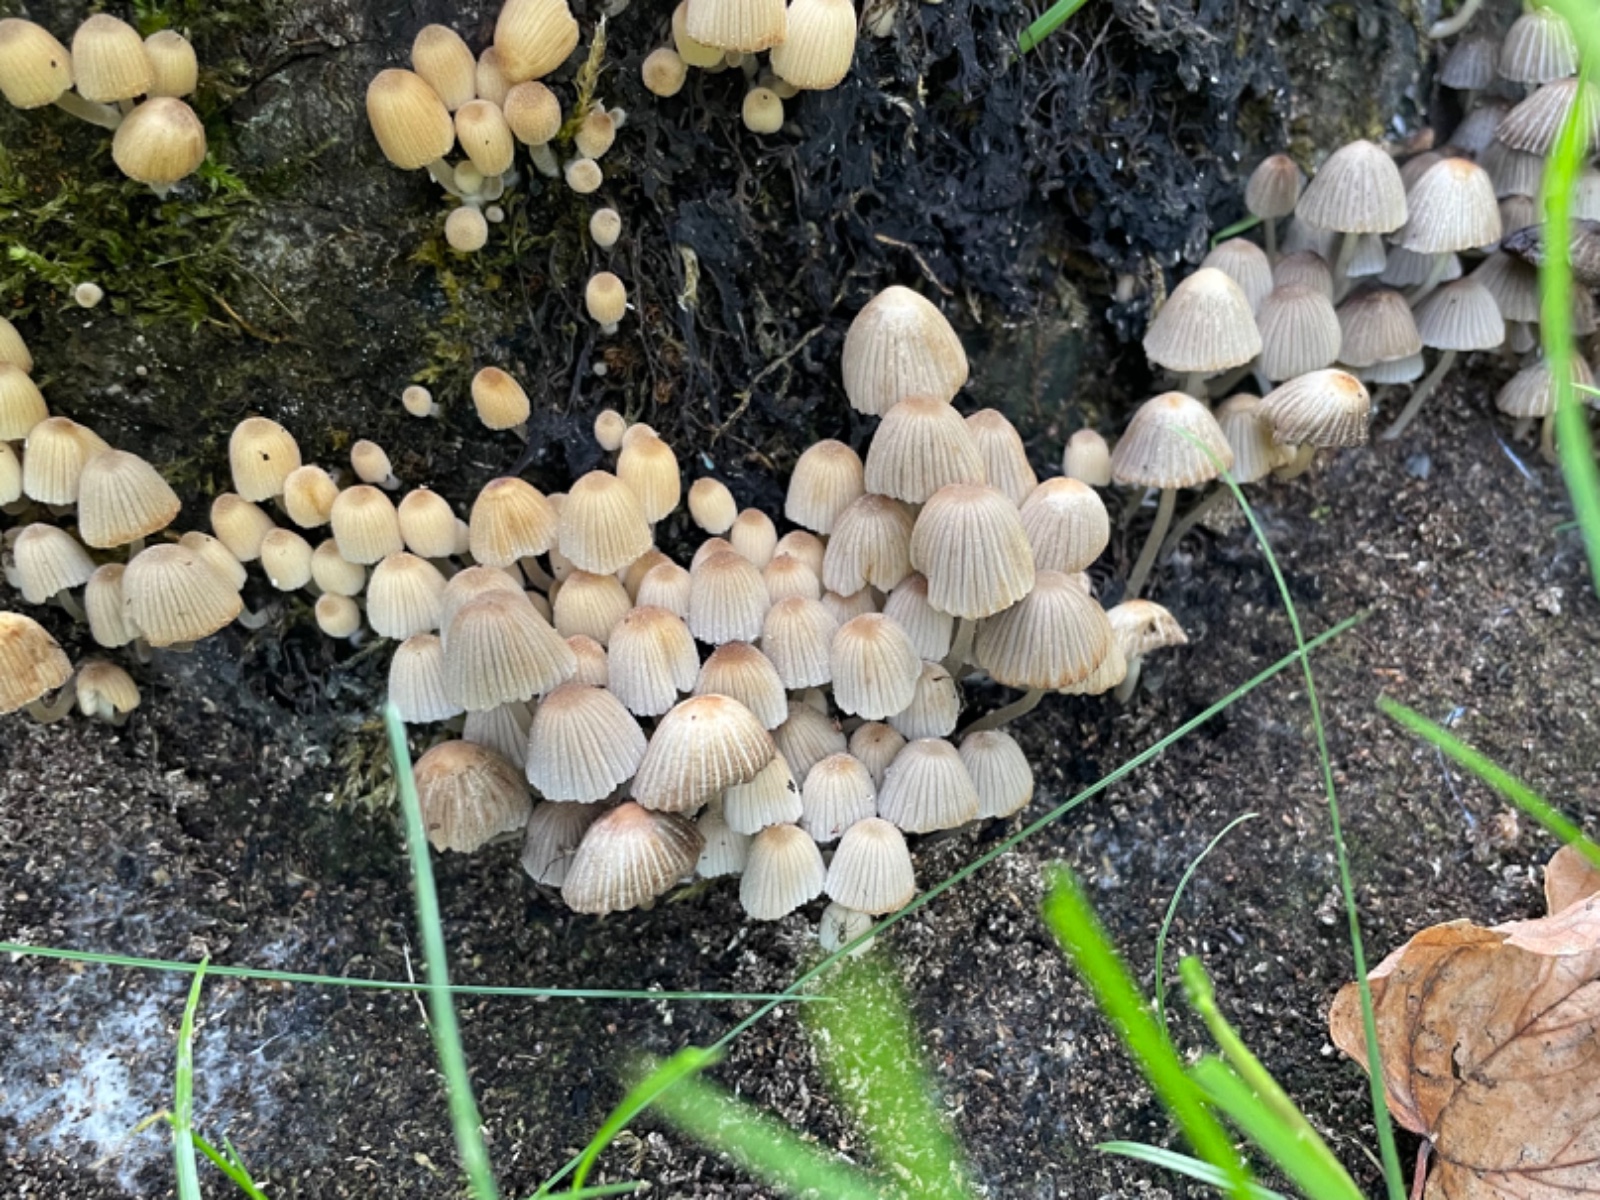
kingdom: Fungi
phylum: Basidiomycota
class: Agaricomycetes
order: Agaricales
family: Psathyrellaceae
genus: Coprinellus
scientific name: Coprinellus disseminatus
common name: bredsået blækhat
